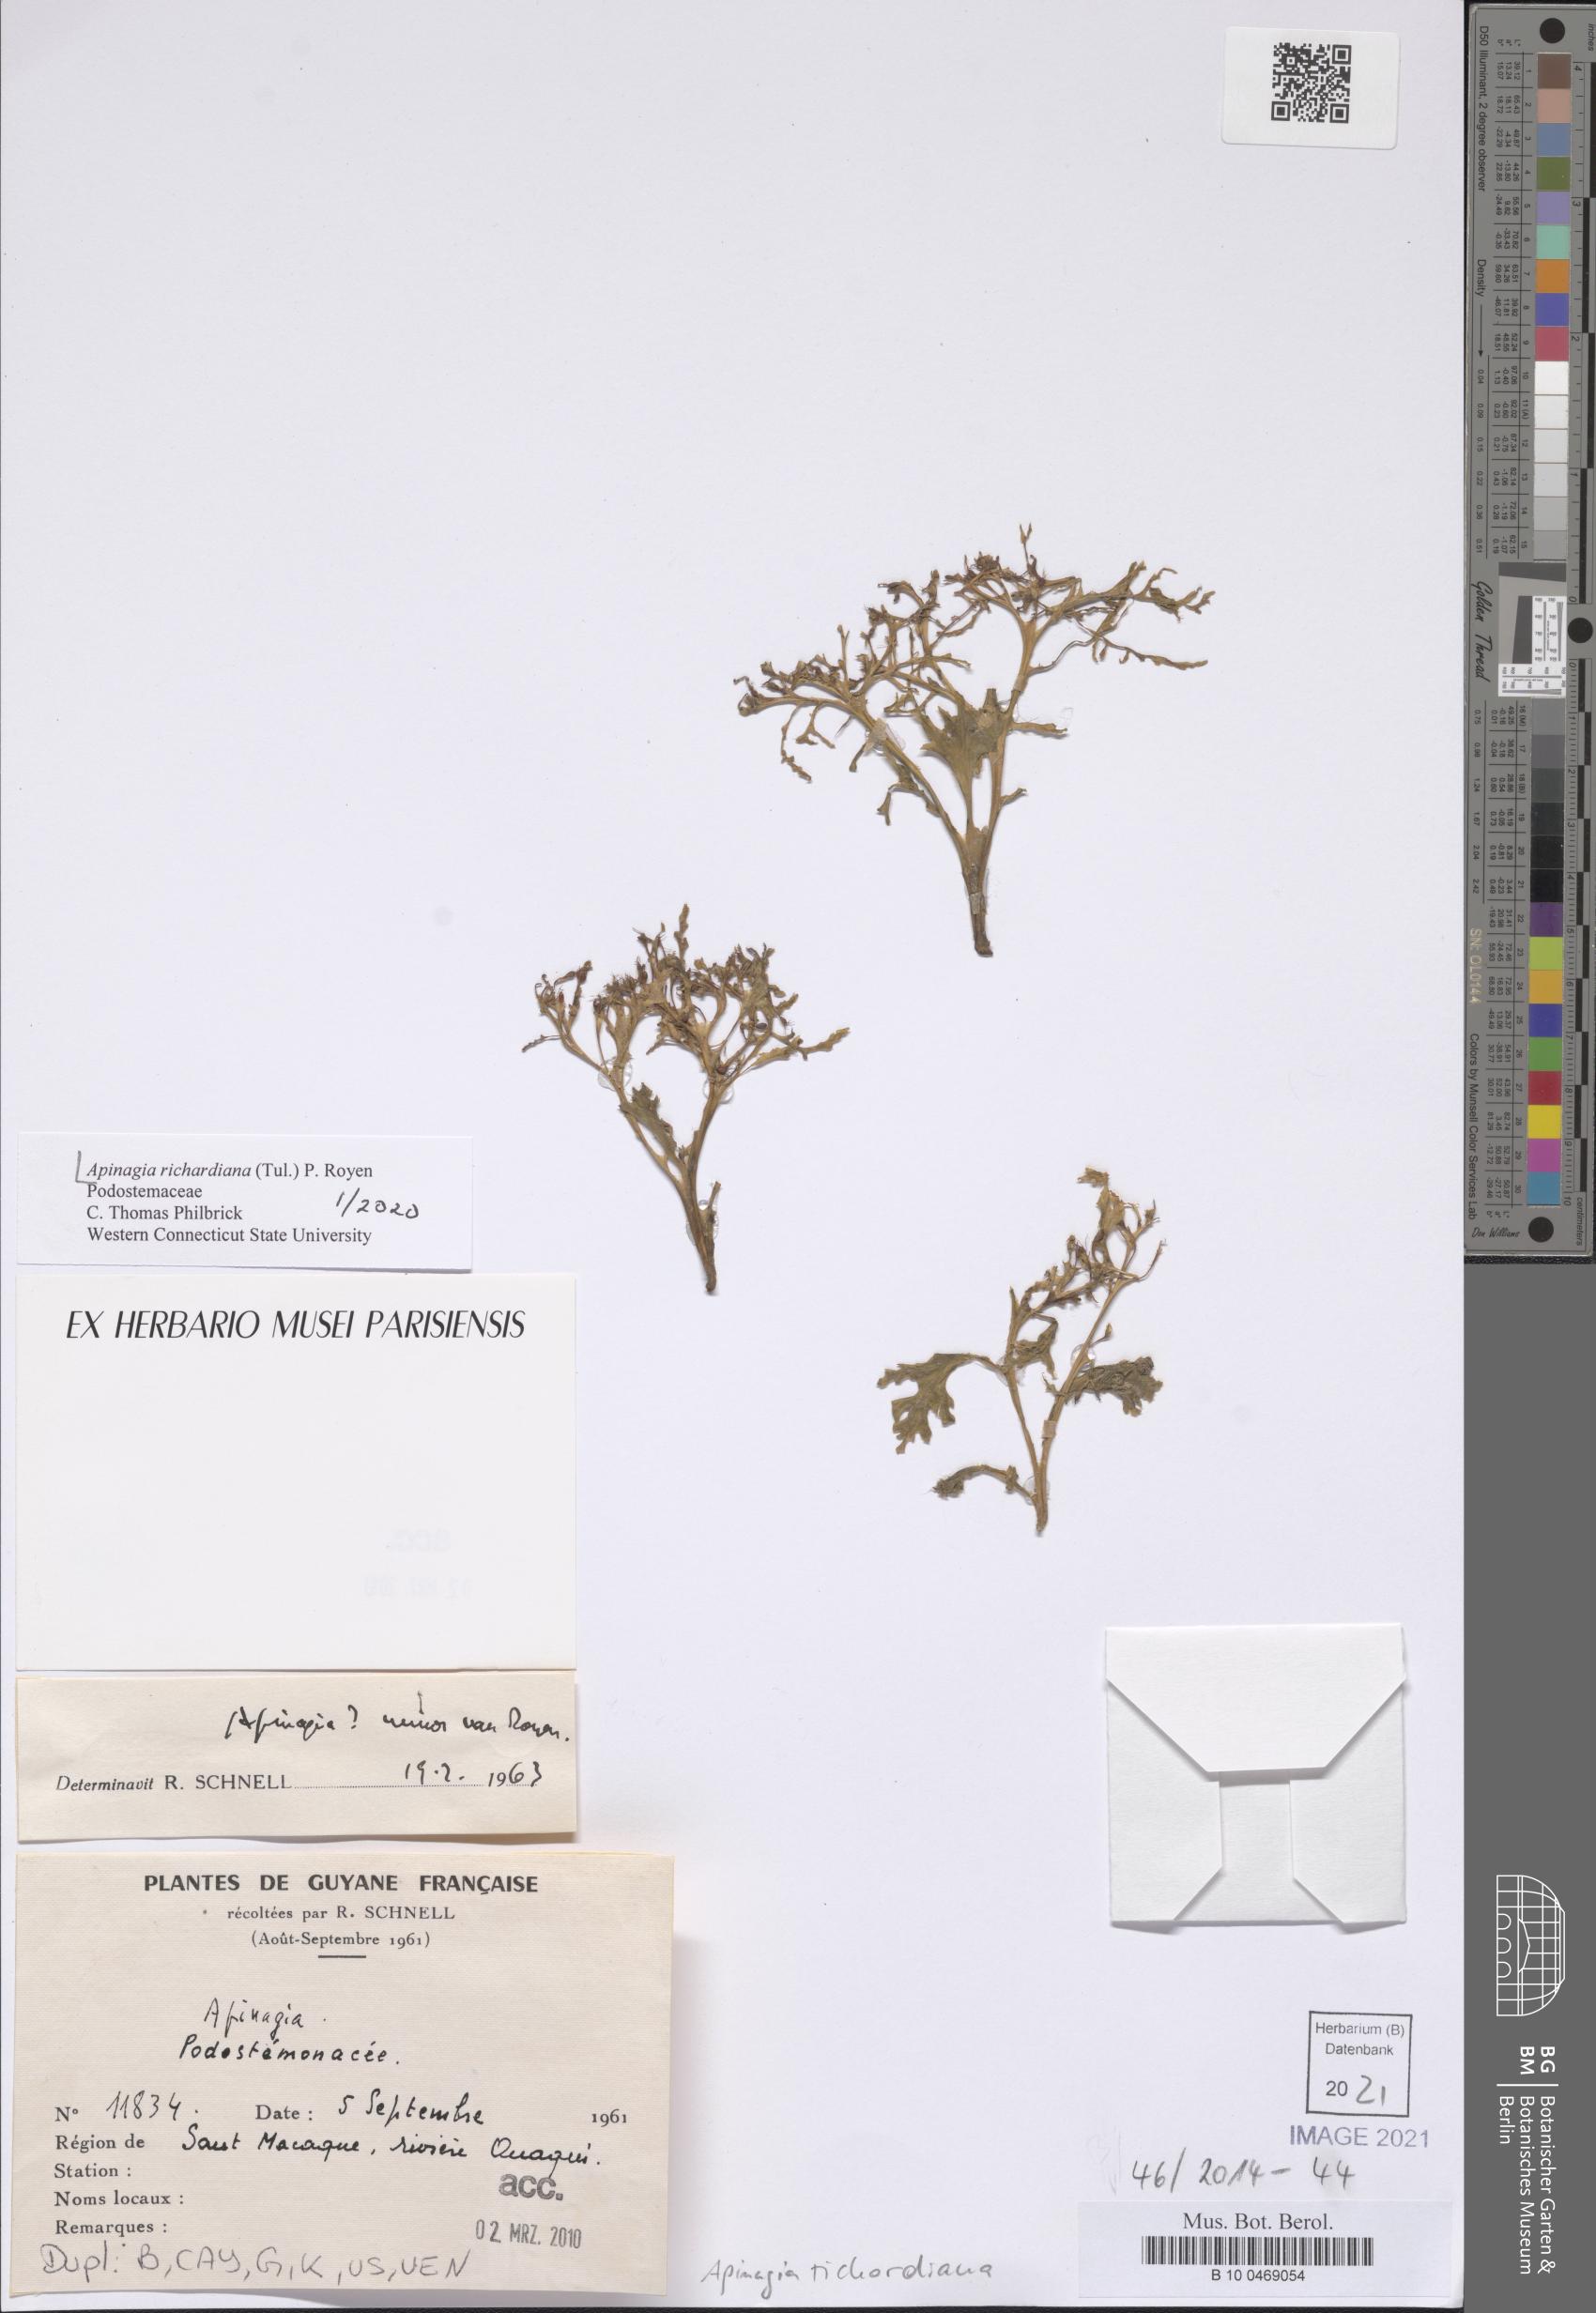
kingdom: Plantae
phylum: Tracheophyta
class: Magnoliopsida
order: Malpighiales
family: Podostemaceae
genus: Apinagia
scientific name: Apinagia richardiana
